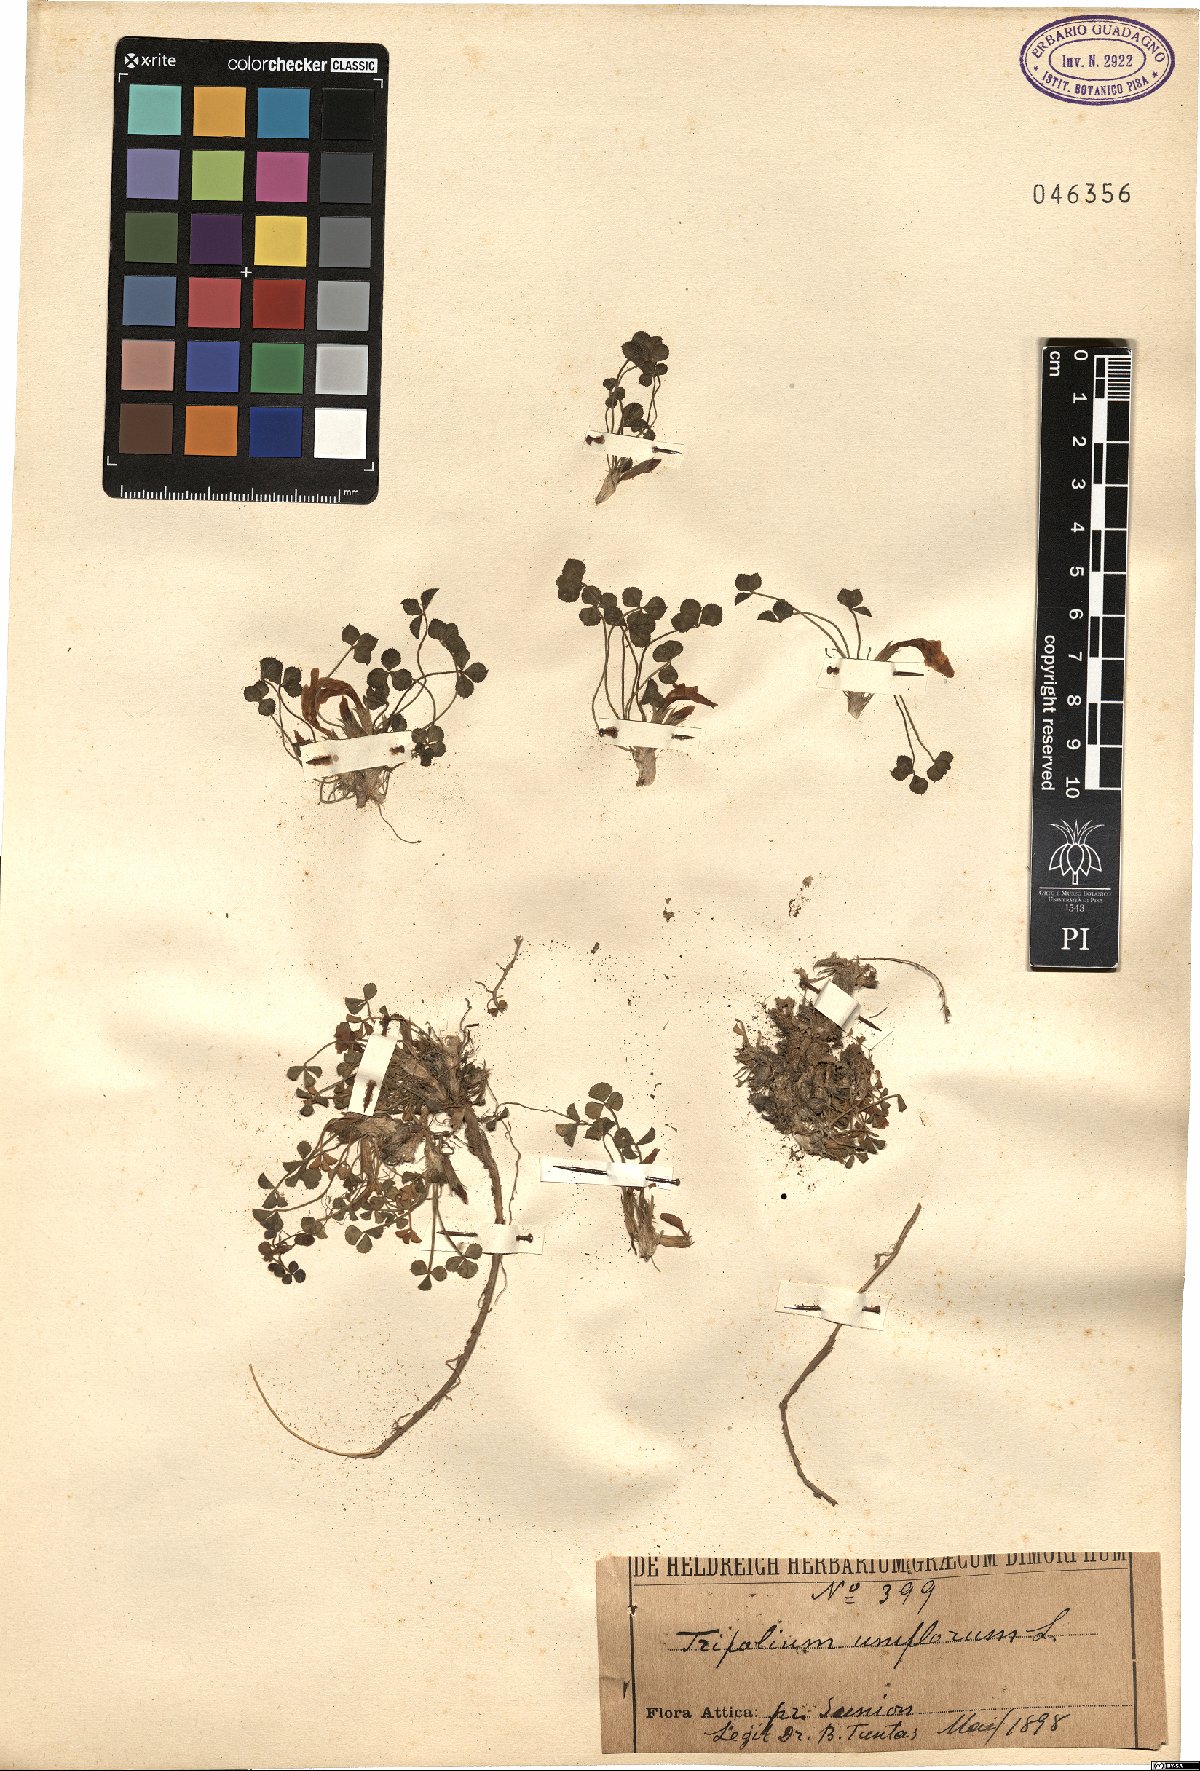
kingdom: Plantae
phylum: Tracheophyta
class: Magnoliopsida
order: Fabales
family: Fabaceae
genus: Trifolium
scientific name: Trifolium uniflorum
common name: One-flower clover
